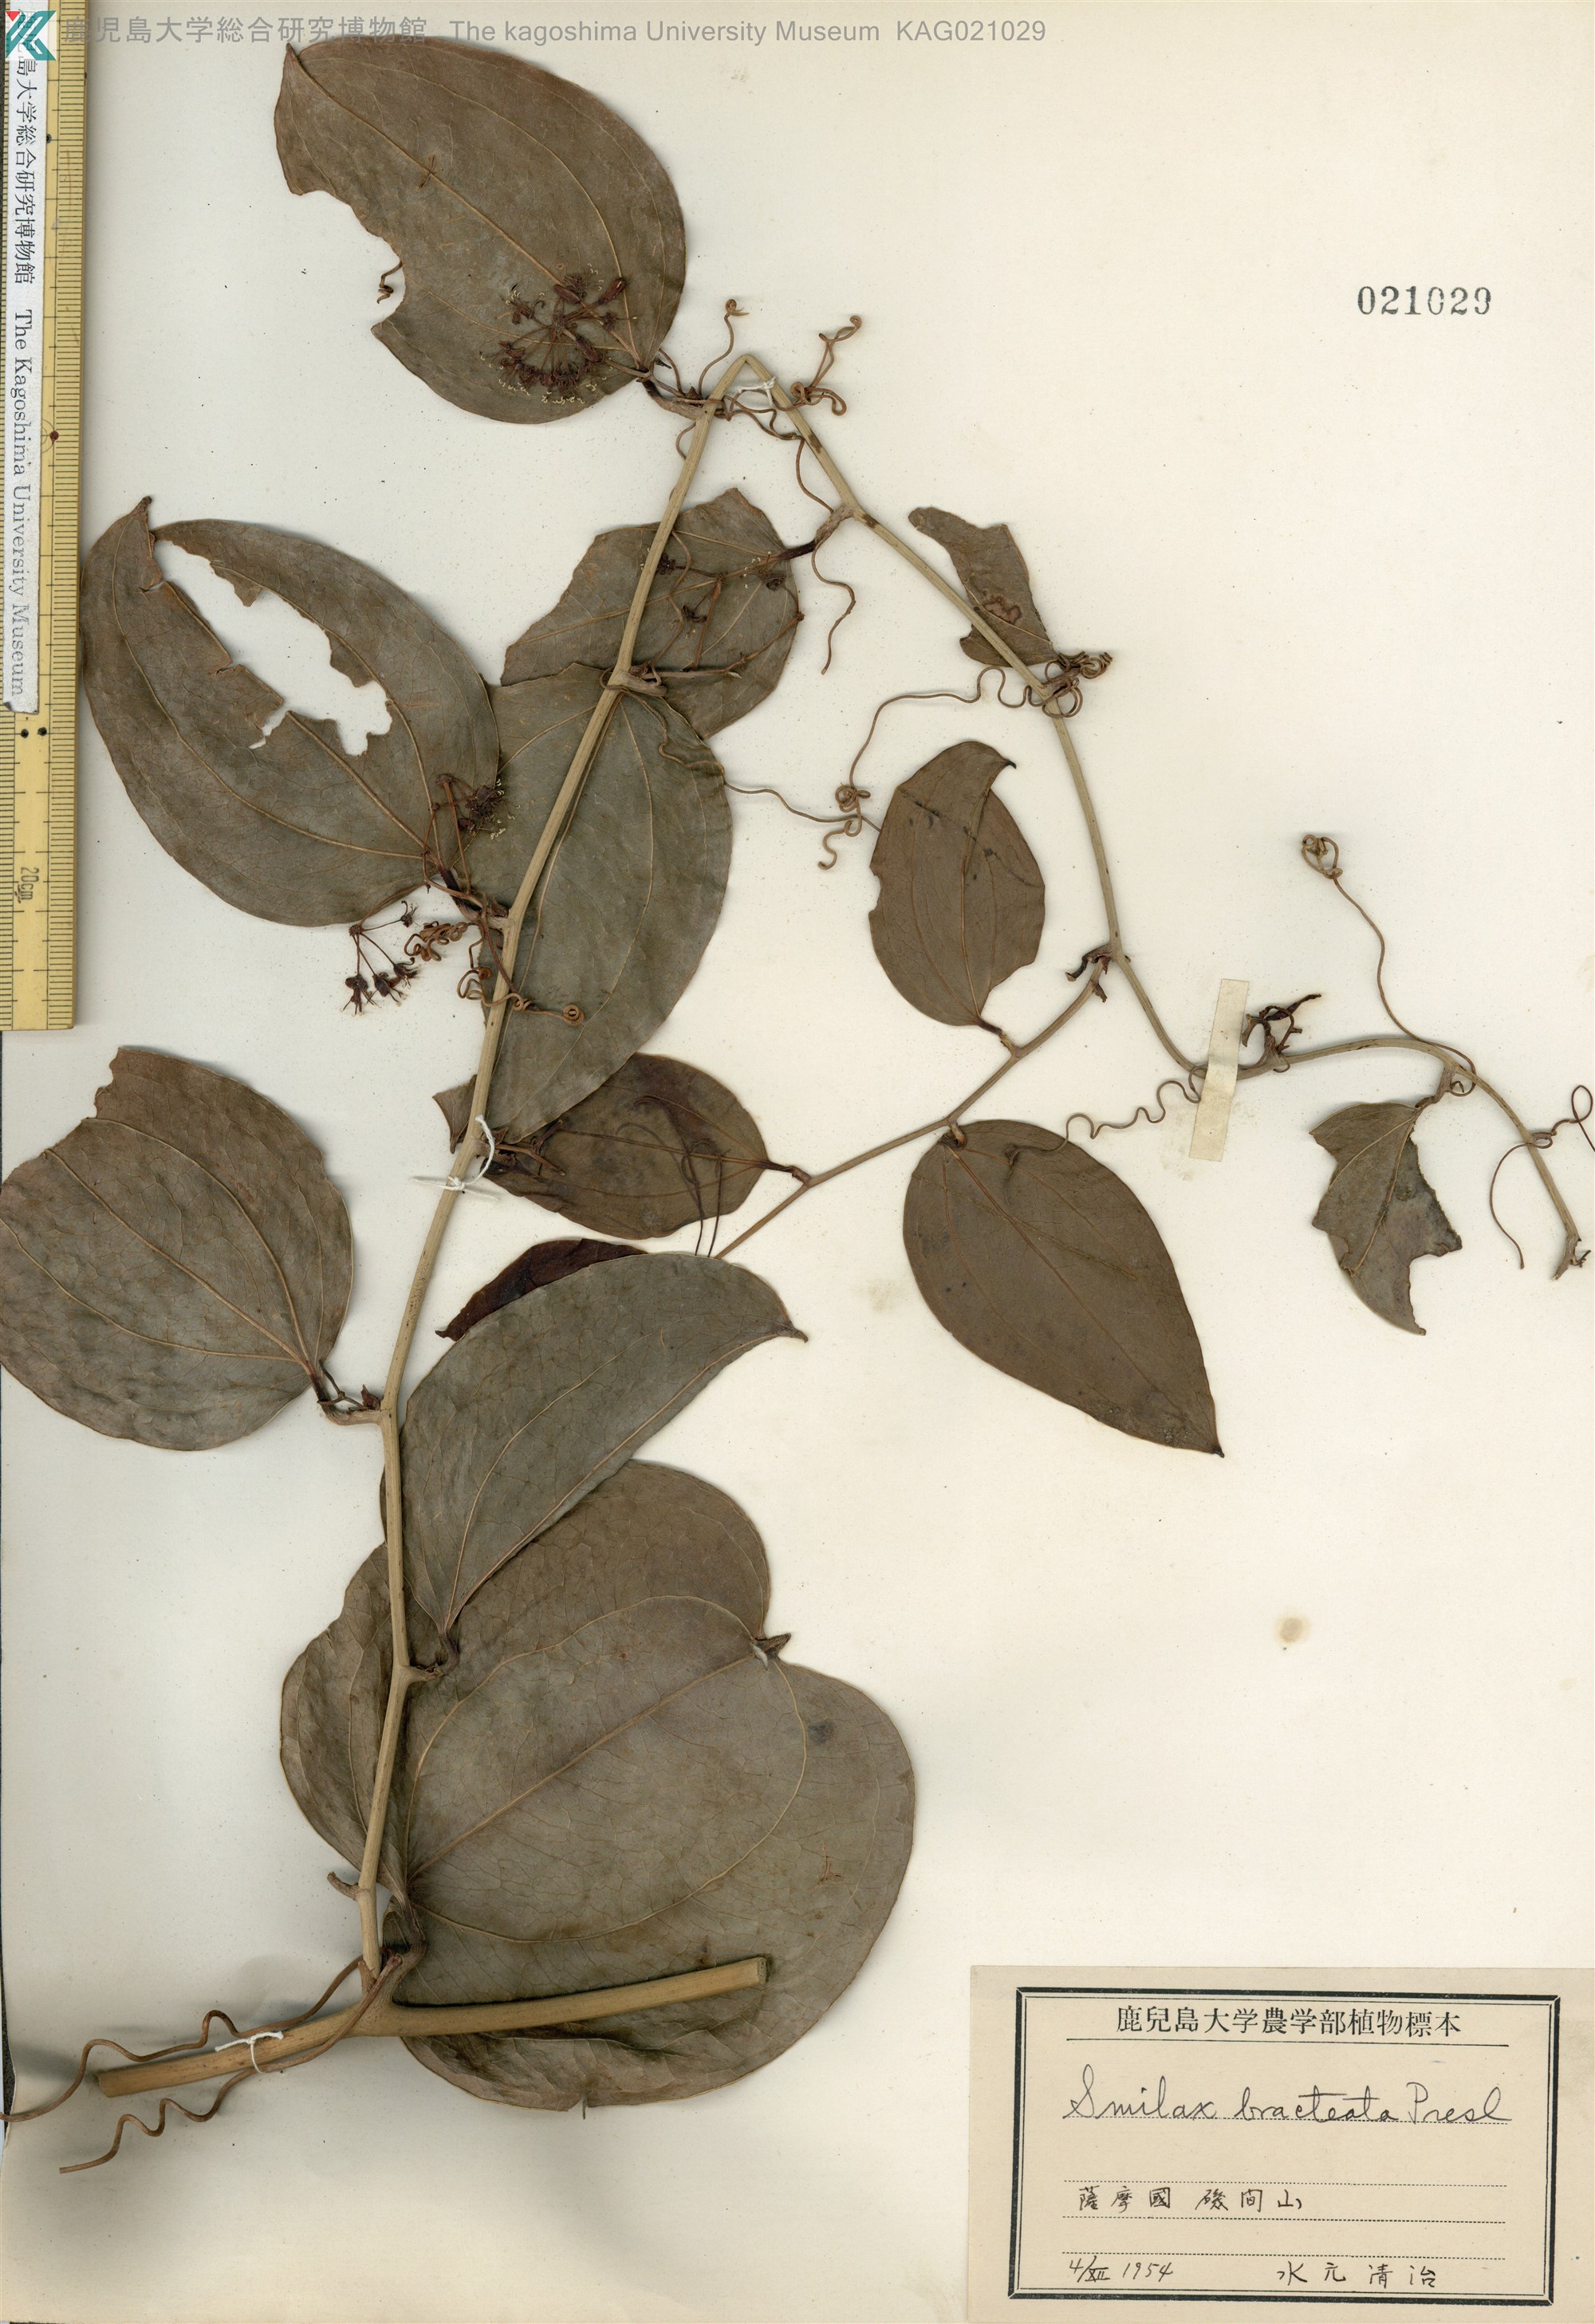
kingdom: Plantae
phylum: Tracheophyta
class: Liliopsida
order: Liliales
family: Smilacaceae
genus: Smilax
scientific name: Smilax bracteata
